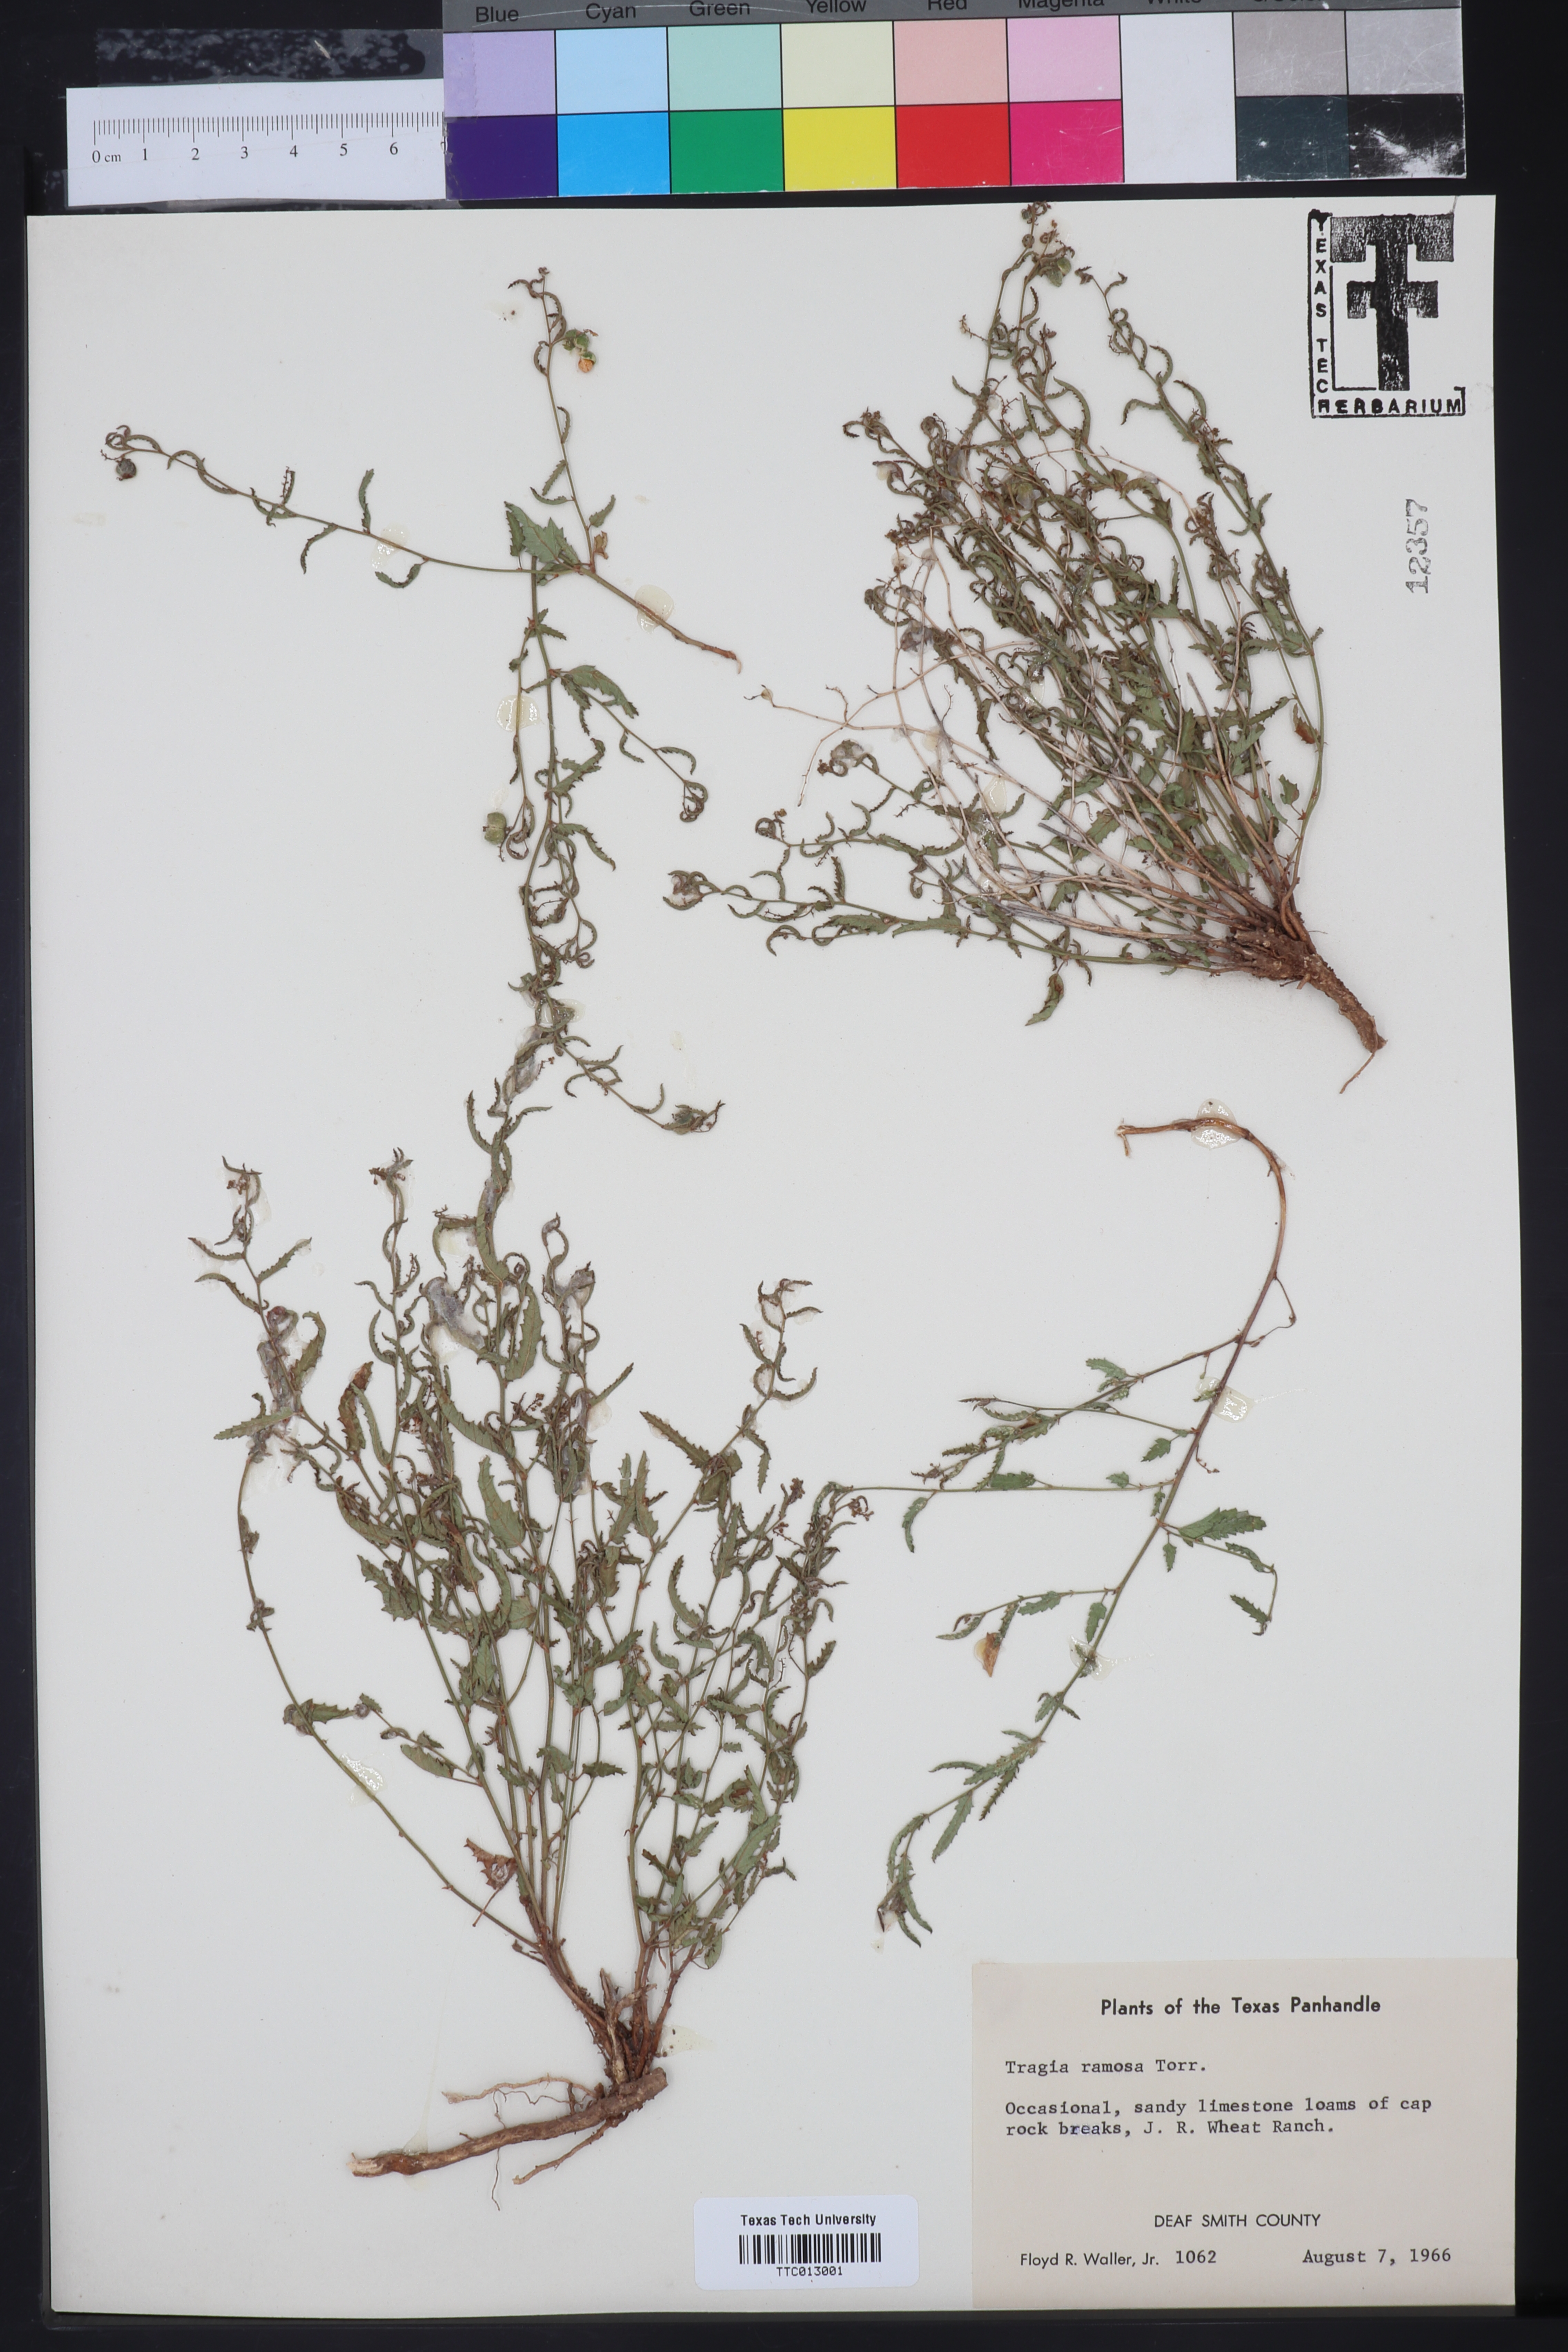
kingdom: Plantae
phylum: Tracheophyta
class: Magnoliopsida
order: Malpighiales
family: Euphorbiaceae
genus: Tragia
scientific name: Tragia ramosa
